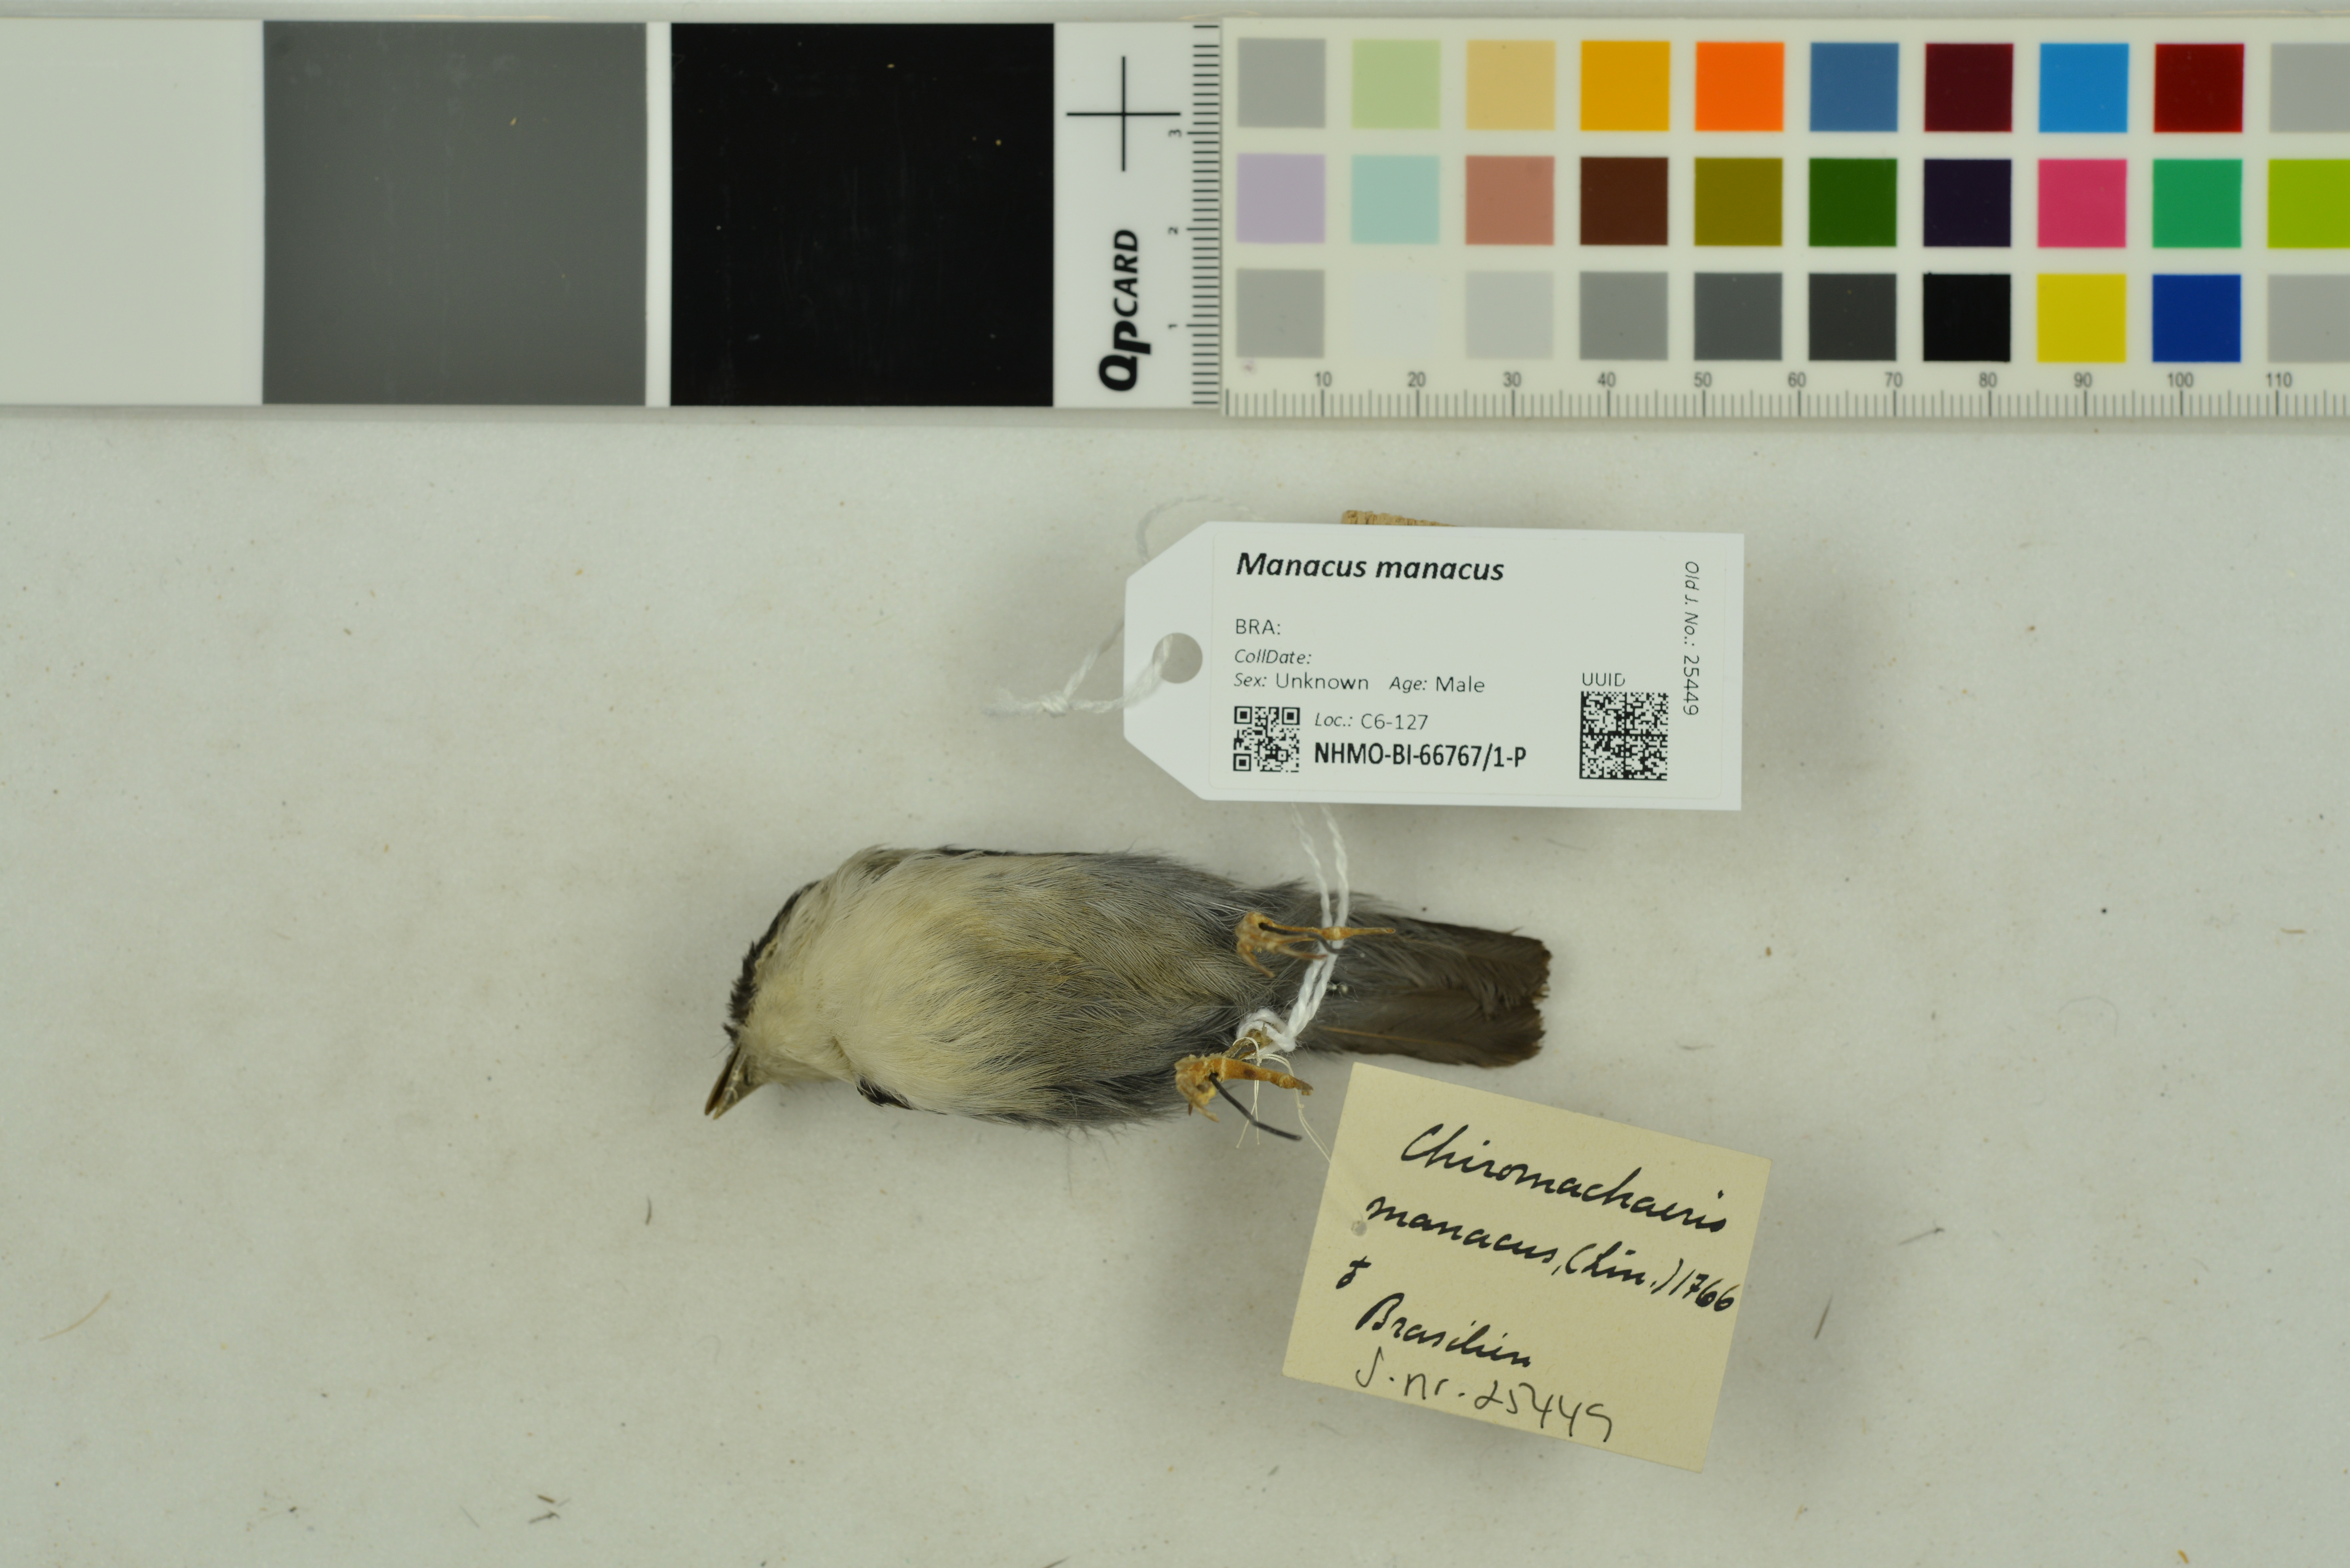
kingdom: Animalia
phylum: Chordata
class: Aves
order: Passeriformes
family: Pipridae
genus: Manacus
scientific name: Manacus manacus
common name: White-bearded manakin
